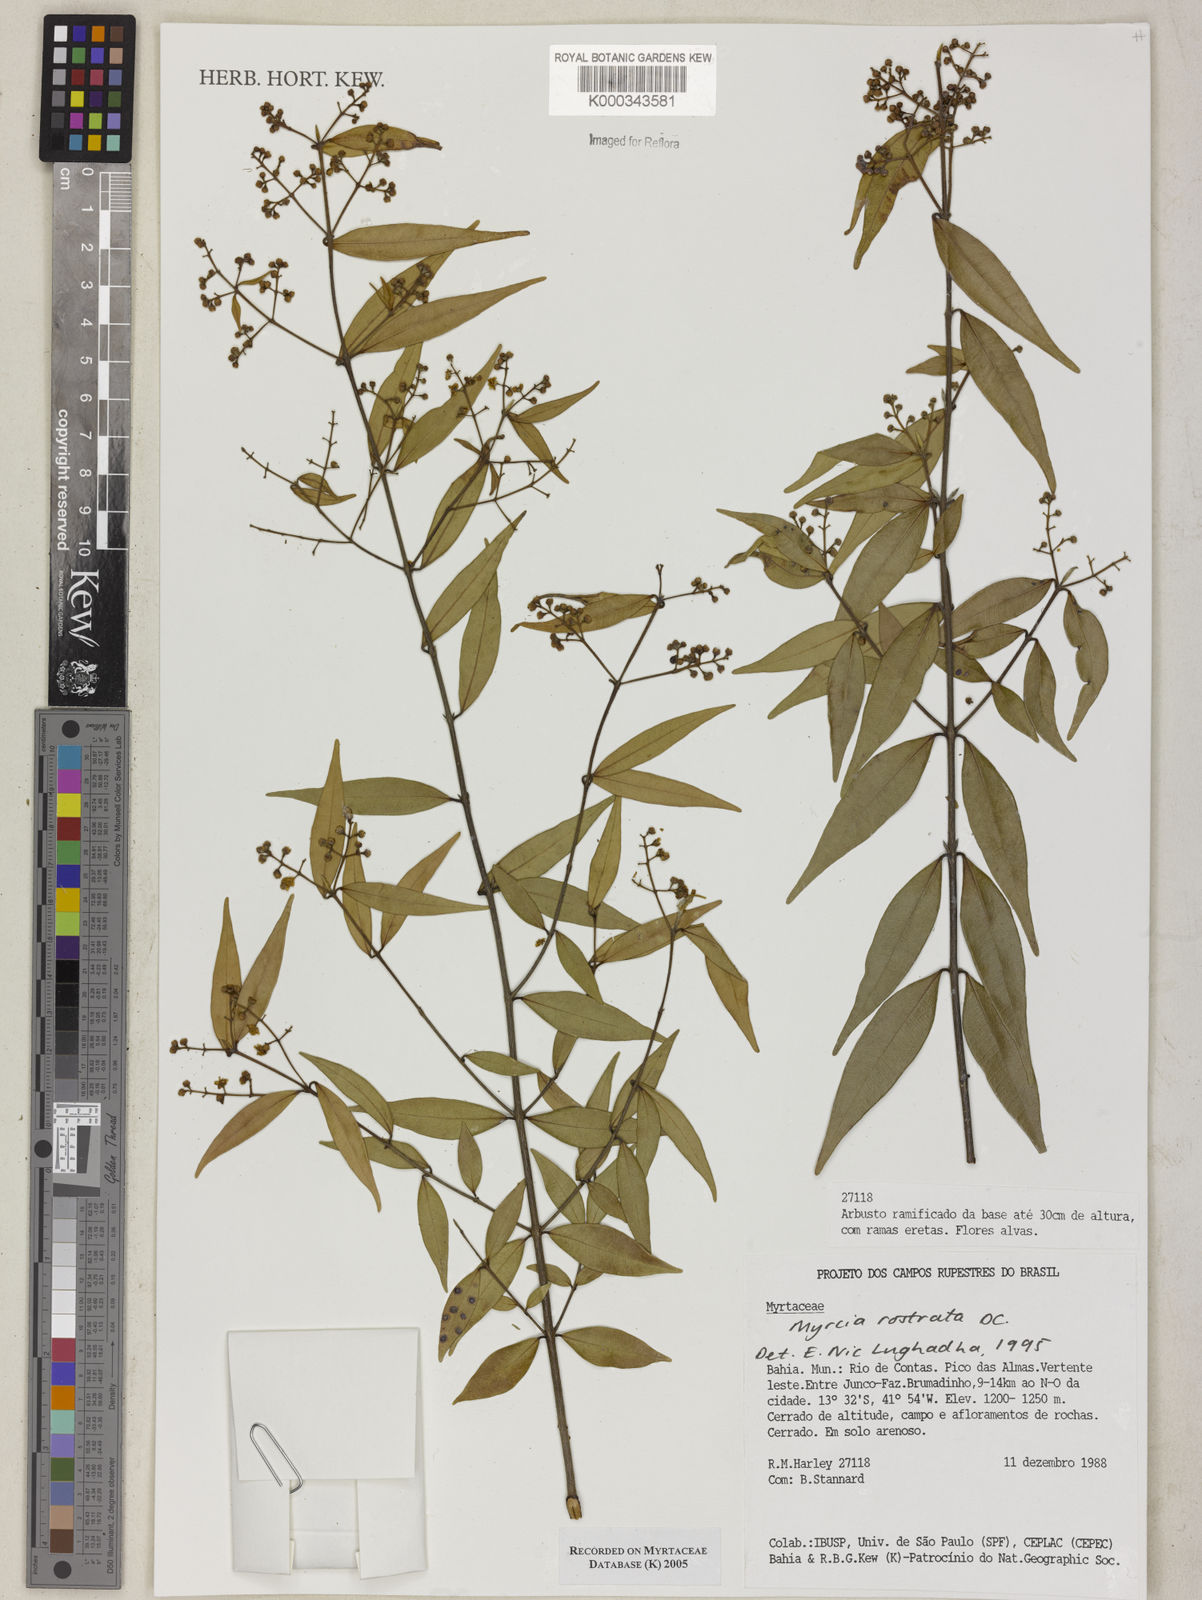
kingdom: Plantae
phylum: Tracheophyta
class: Magnoliopsida
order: Myrtales
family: Myrtaceae
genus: Myrcia
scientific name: Myrcia splendens
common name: Surinam cherry
